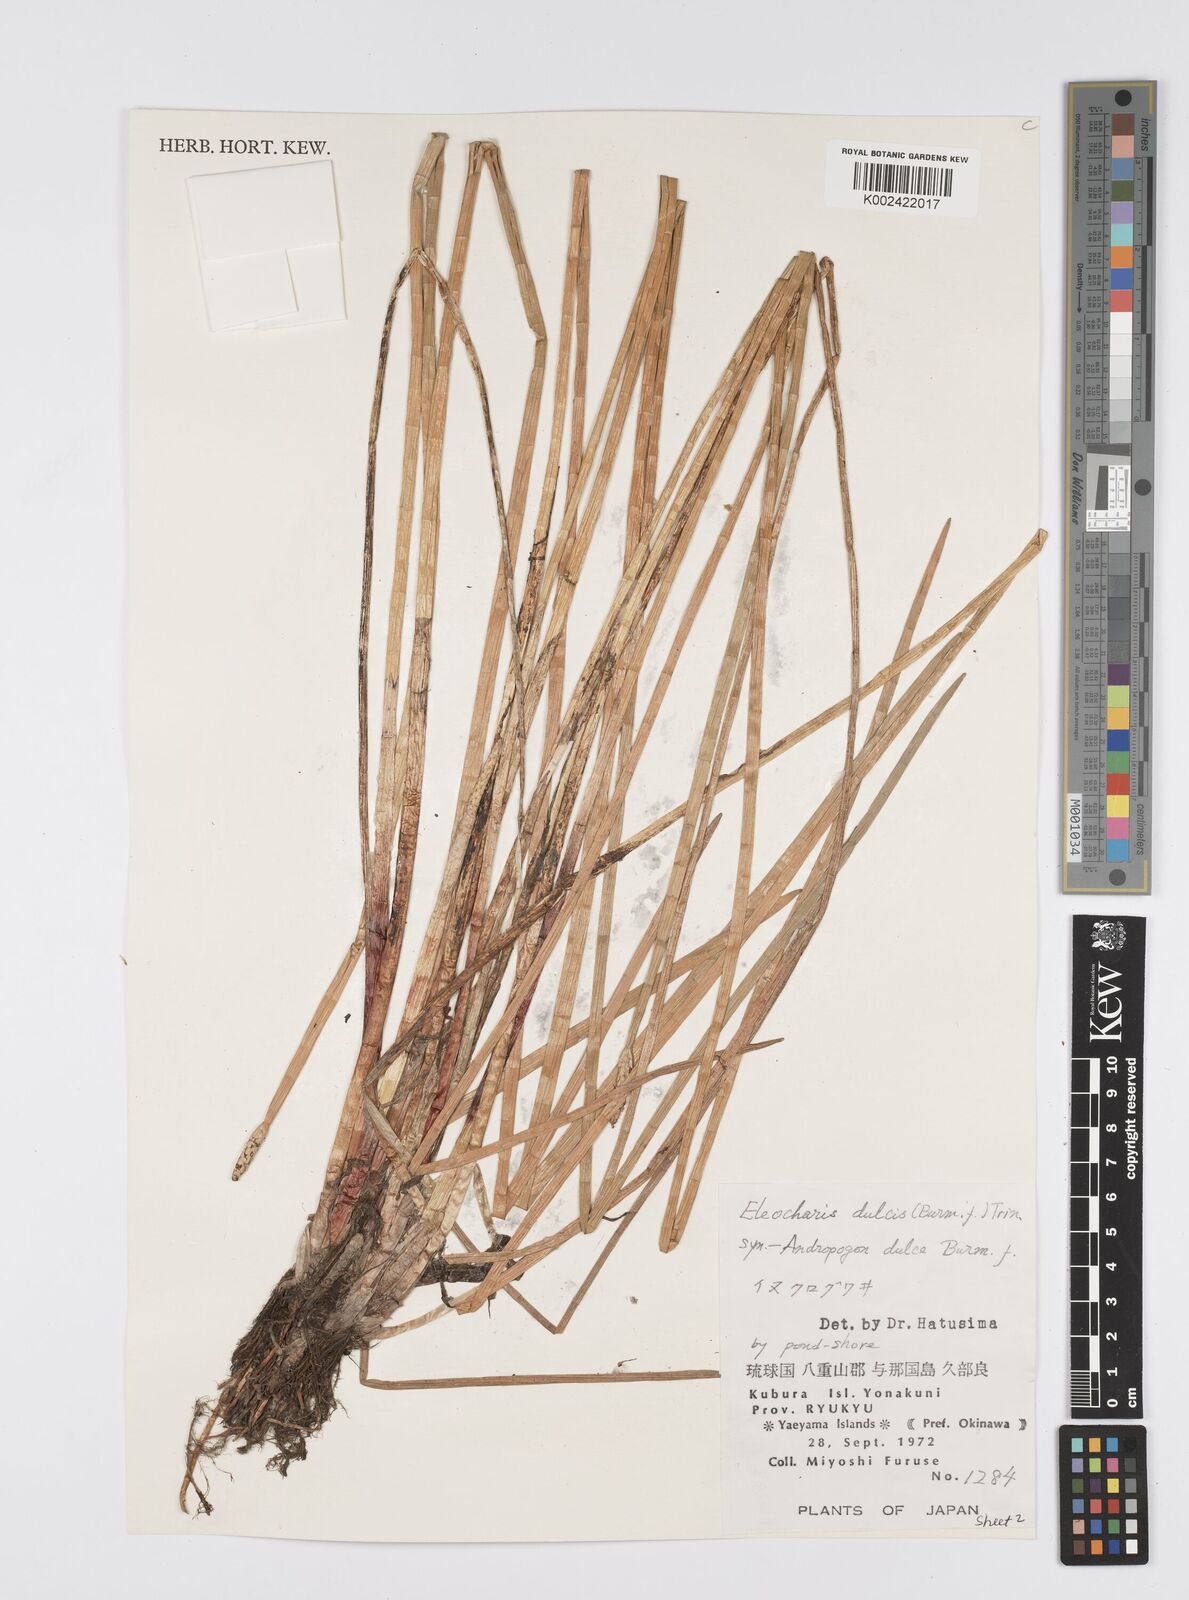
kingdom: Plantae
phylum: Tracheophyta
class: Liliopsida
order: Poales
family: Cyperaceae
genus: Eleocharis
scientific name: Eleocharis dulcis
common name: Chinese water chestnut
